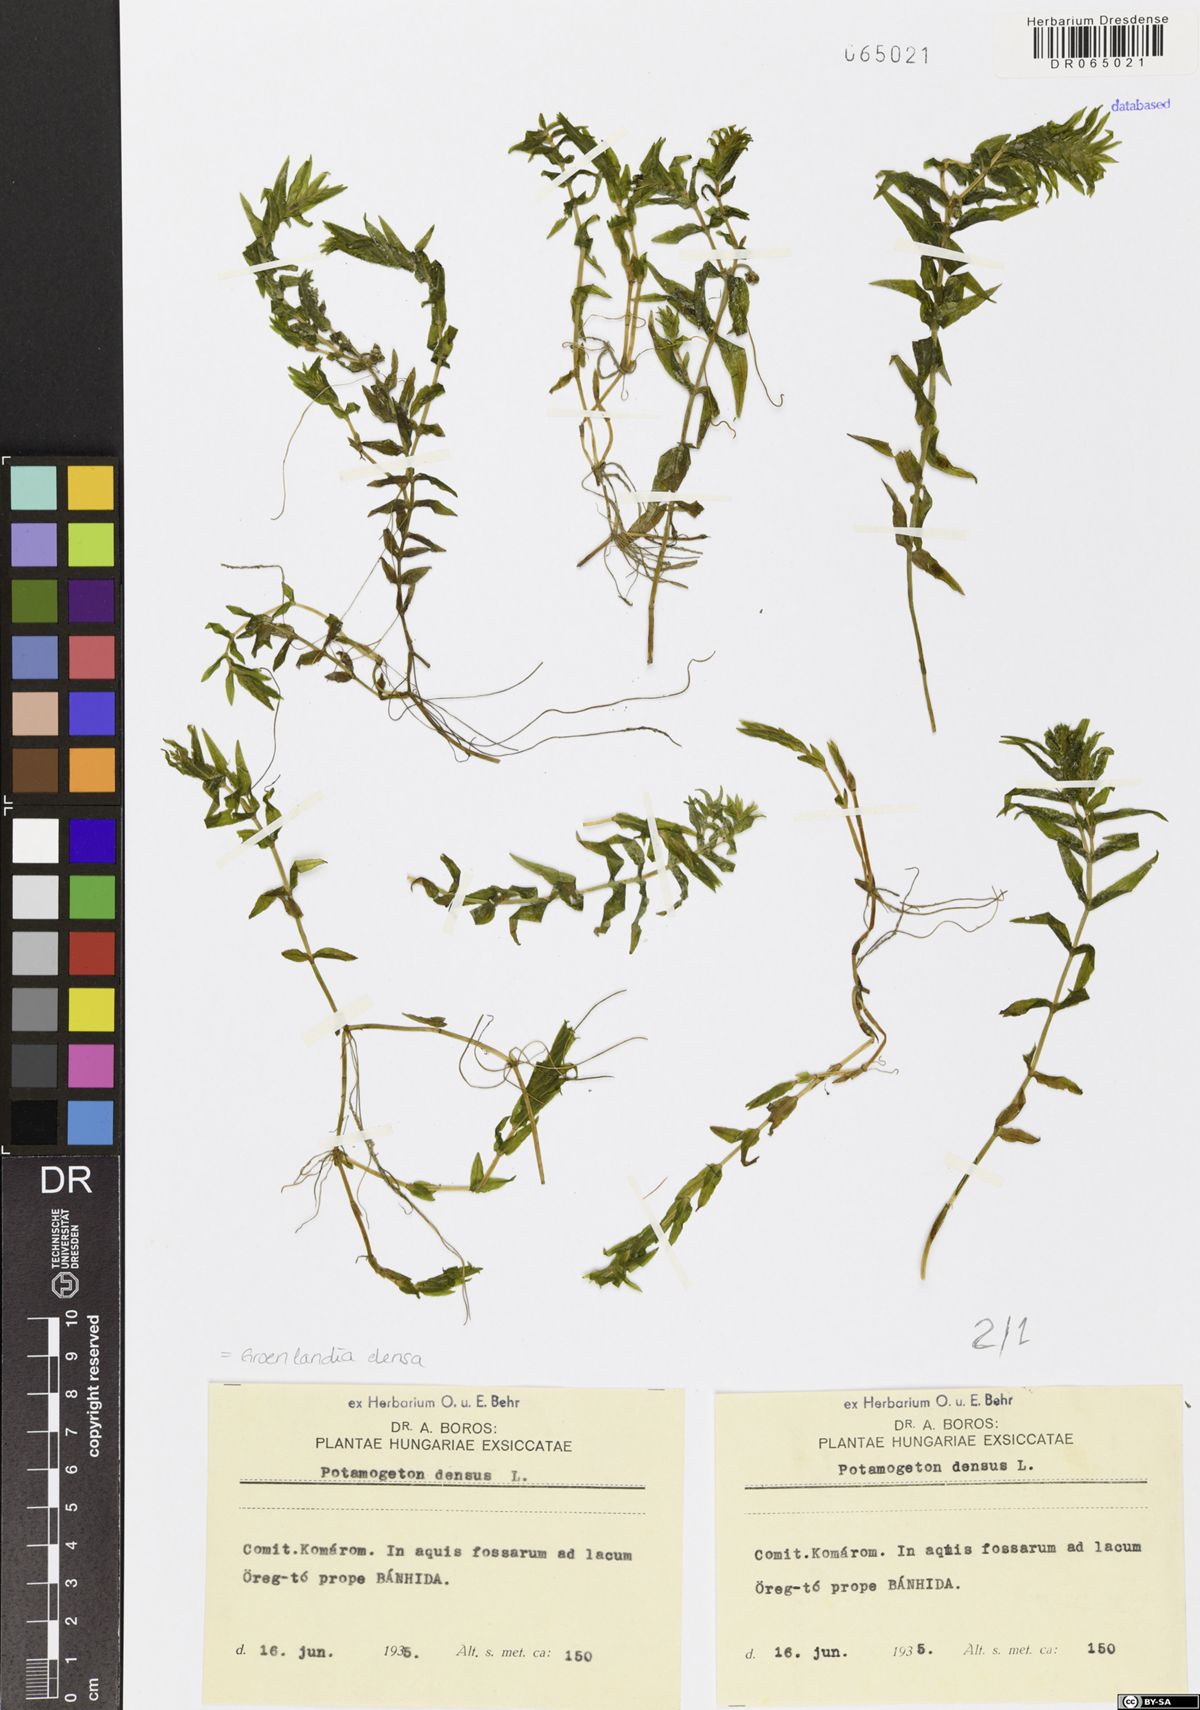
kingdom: Plantae
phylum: Tracheophyta
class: Liliopsida
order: Alismatales
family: Potamogetonaceae
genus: Groenlandia
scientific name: Groenlandia densa
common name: Opposite-leaved pondweed
